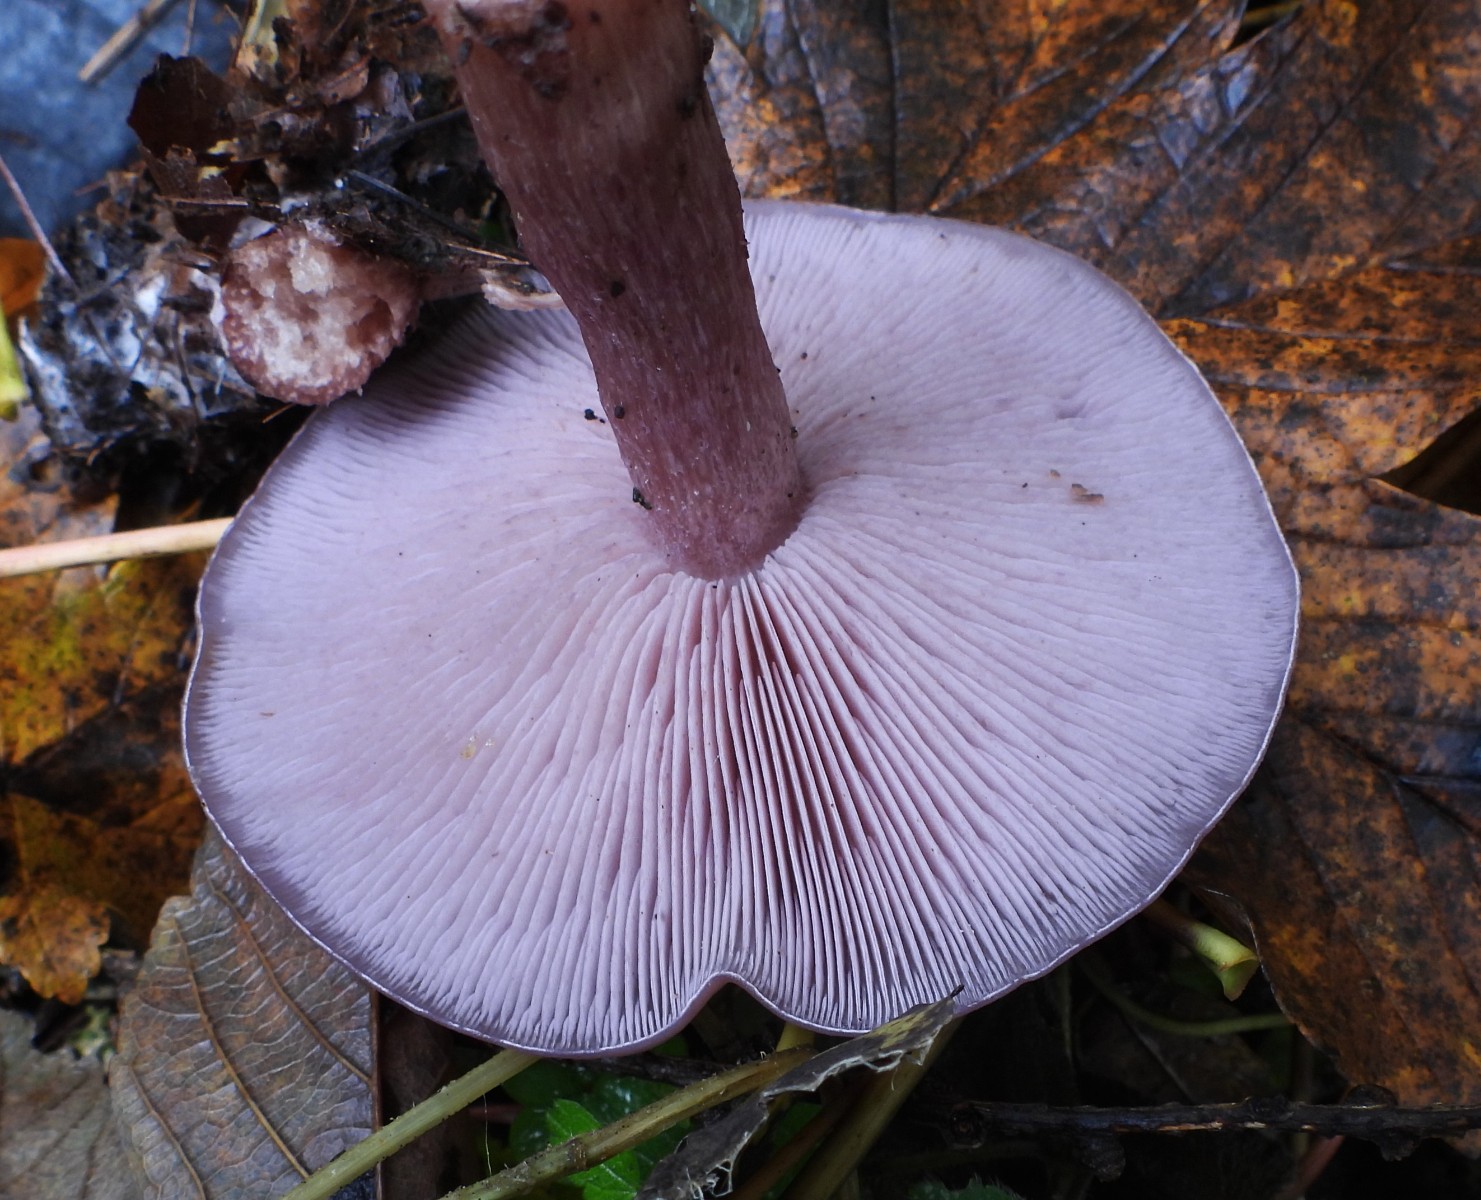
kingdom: Fungi
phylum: Basidiomycota
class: Agaricomycetes
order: Agaricales
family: Tricholomataceae
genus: Lepista
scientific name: Lepista lilacea
